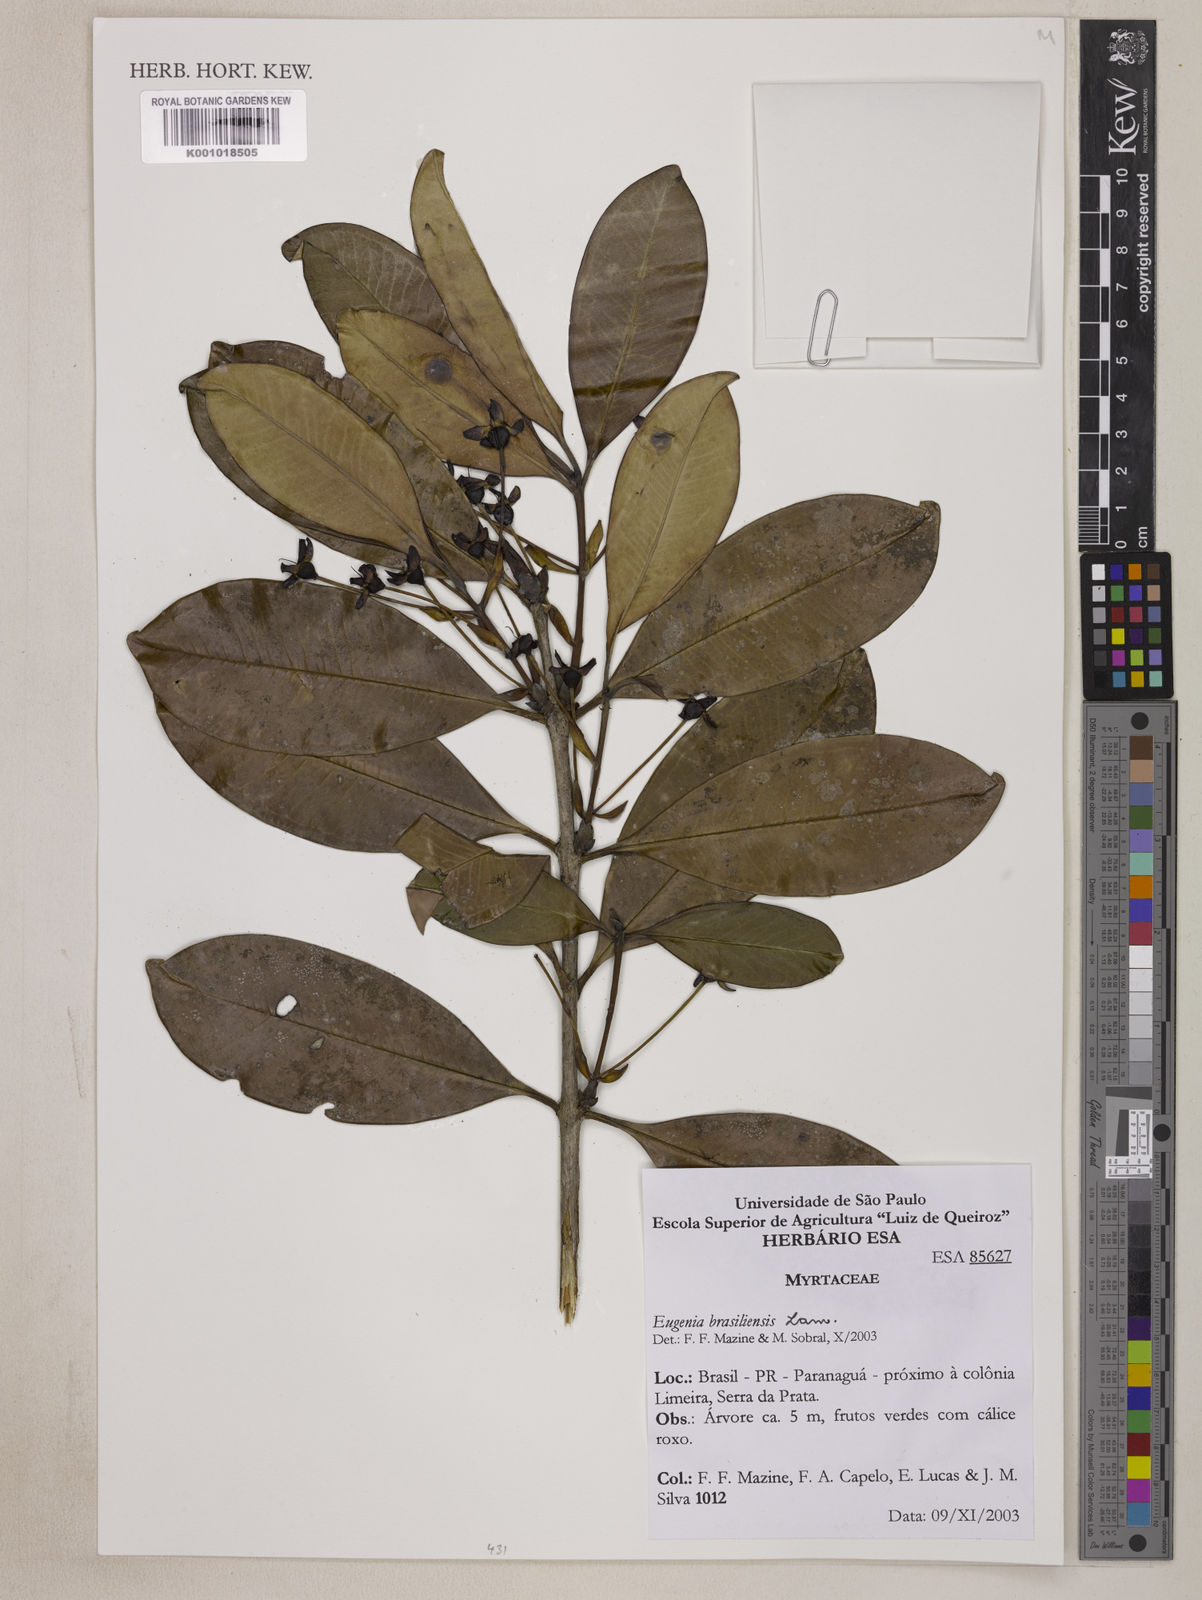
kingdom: Plantae
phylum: Tracheophyta
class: Magnoliopsida
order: Myrtales
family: Myrtaceae
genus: Eugenia
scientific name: Eugenia brasiliensis
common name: Grumichama
